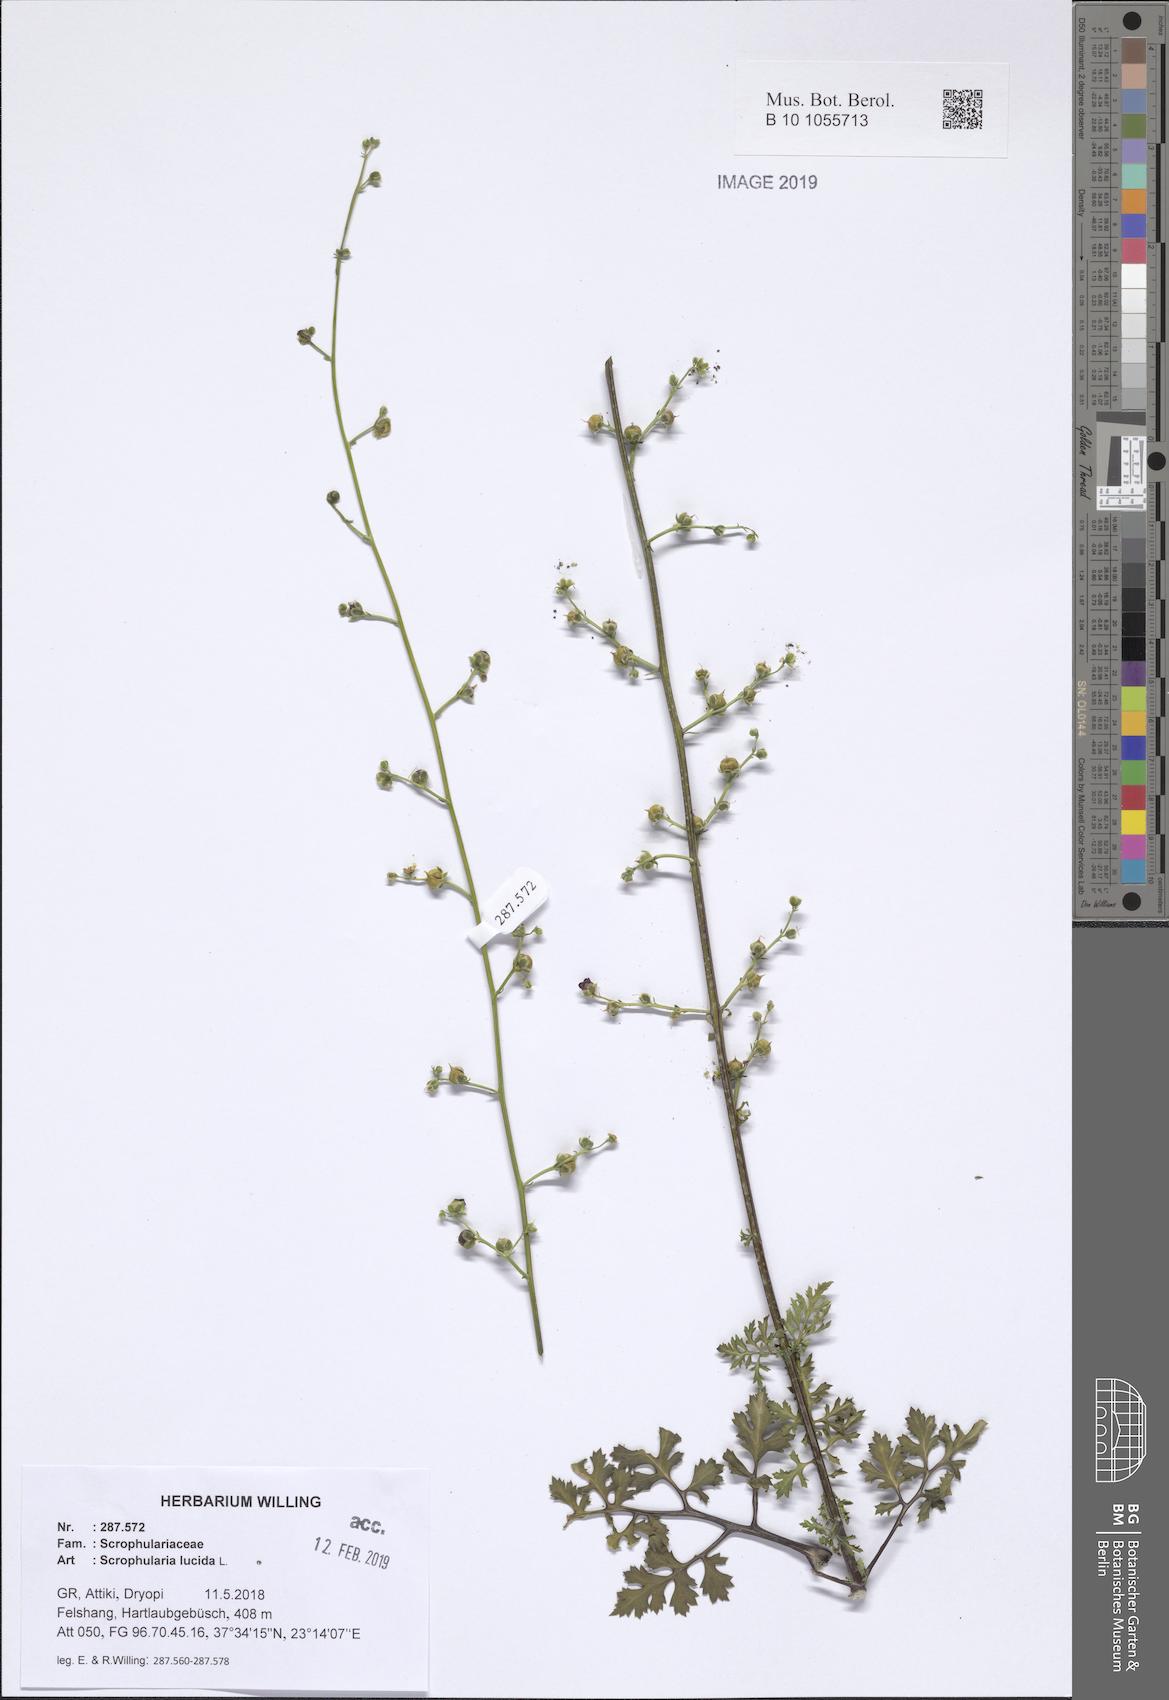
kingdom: Plantae
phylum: Tracheophyta
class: Magnoliopsida
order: Lamiales
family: Scrophulariaceae
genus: Scrophularia
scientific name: Scrophularia lucida
